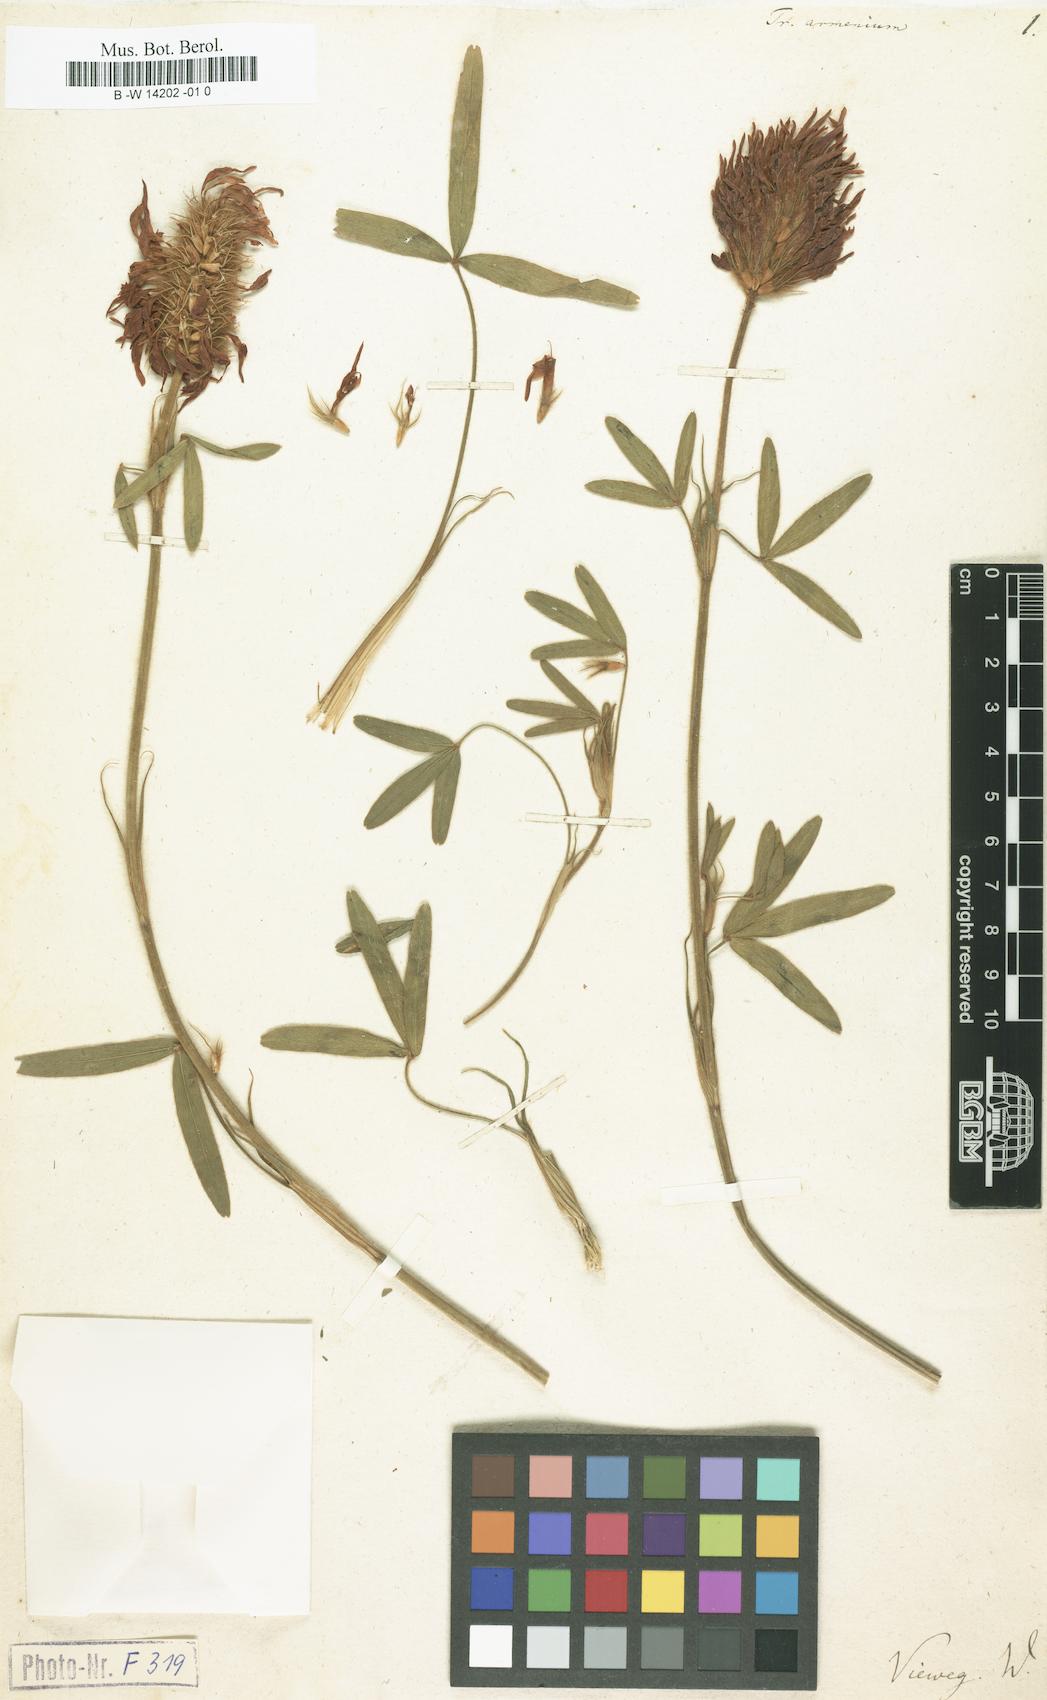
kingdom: Plantae
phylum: Tracheophyta
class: Magnoliopsida
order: Fabales
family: Fabaceae
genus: Trifolium
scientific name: Trifolium pannonicum
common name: Hungarian clover
